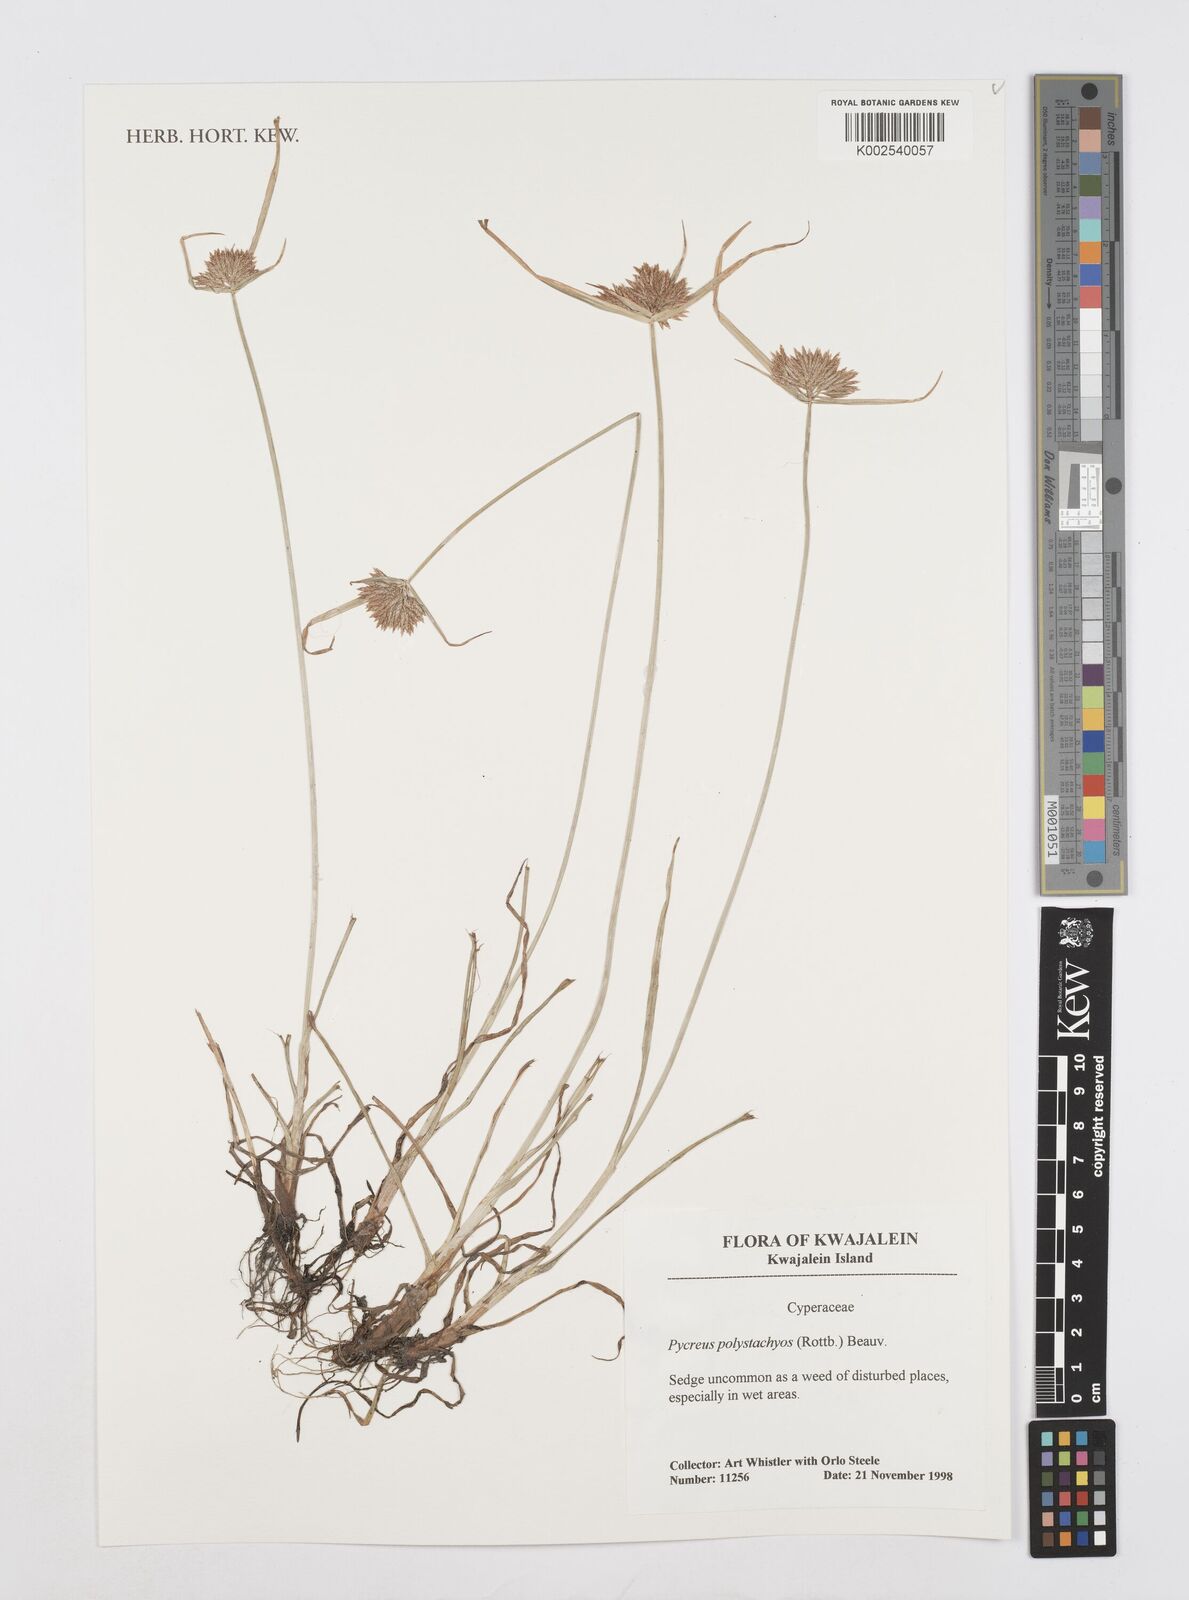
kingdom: Plantae
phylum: Tracheophyta
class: Liliopsida
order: Poales
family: Cyperaceae
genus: Cyperus
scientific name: Cyperus polystachyos
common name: Bunchy flat sedge
